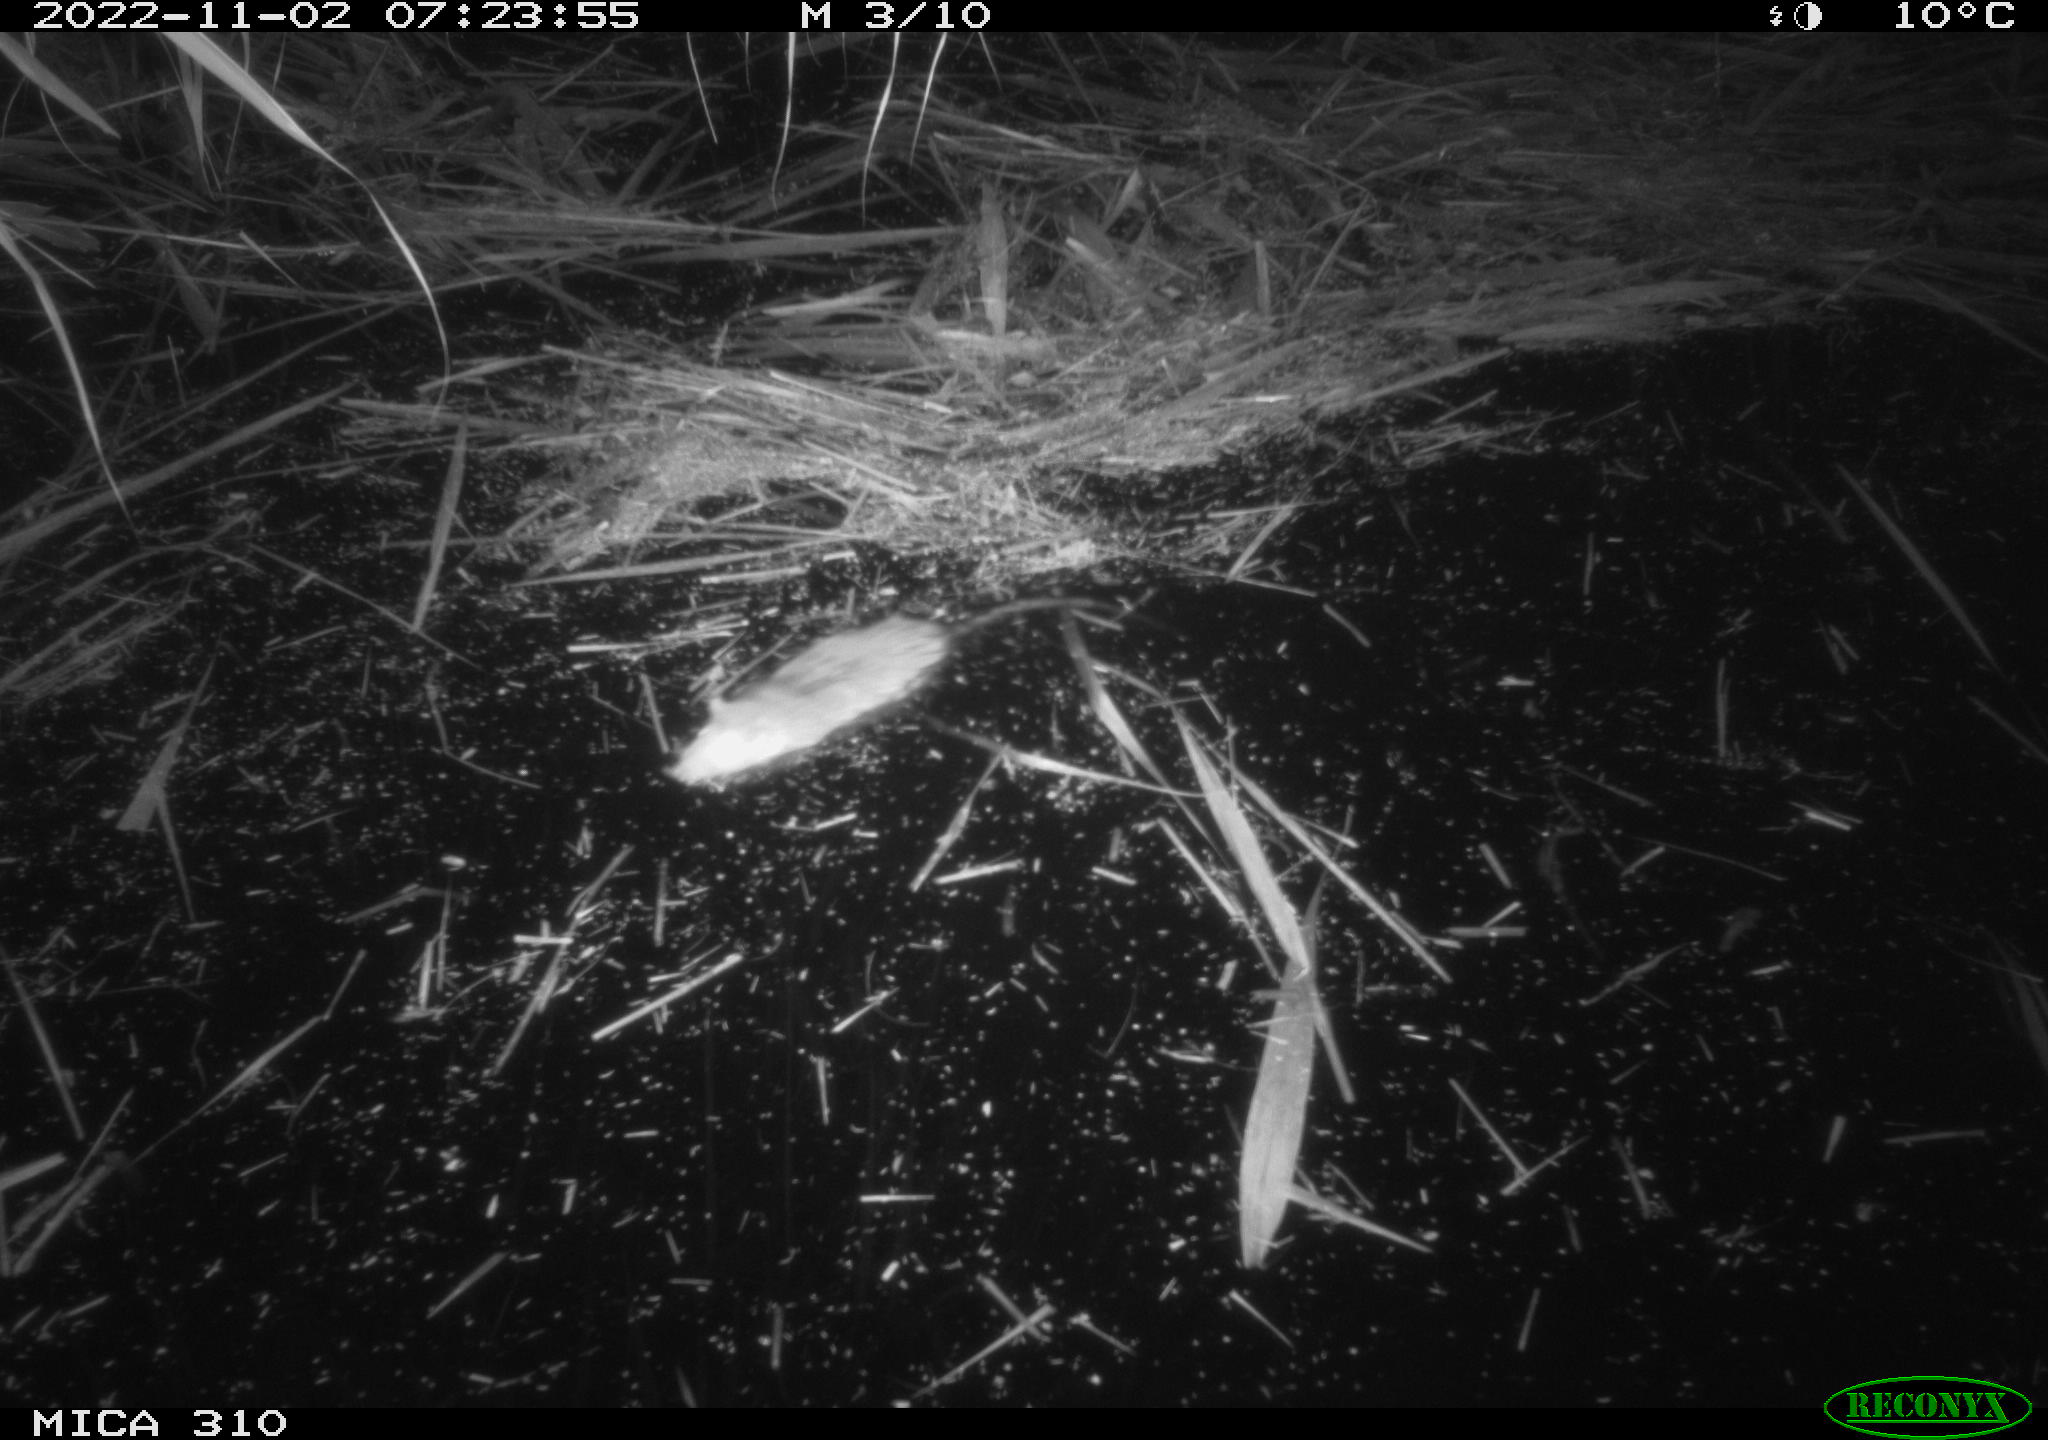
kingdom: Animalia
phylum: Chordata
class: Mammalia
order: Rodentia
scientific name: Rodentia
